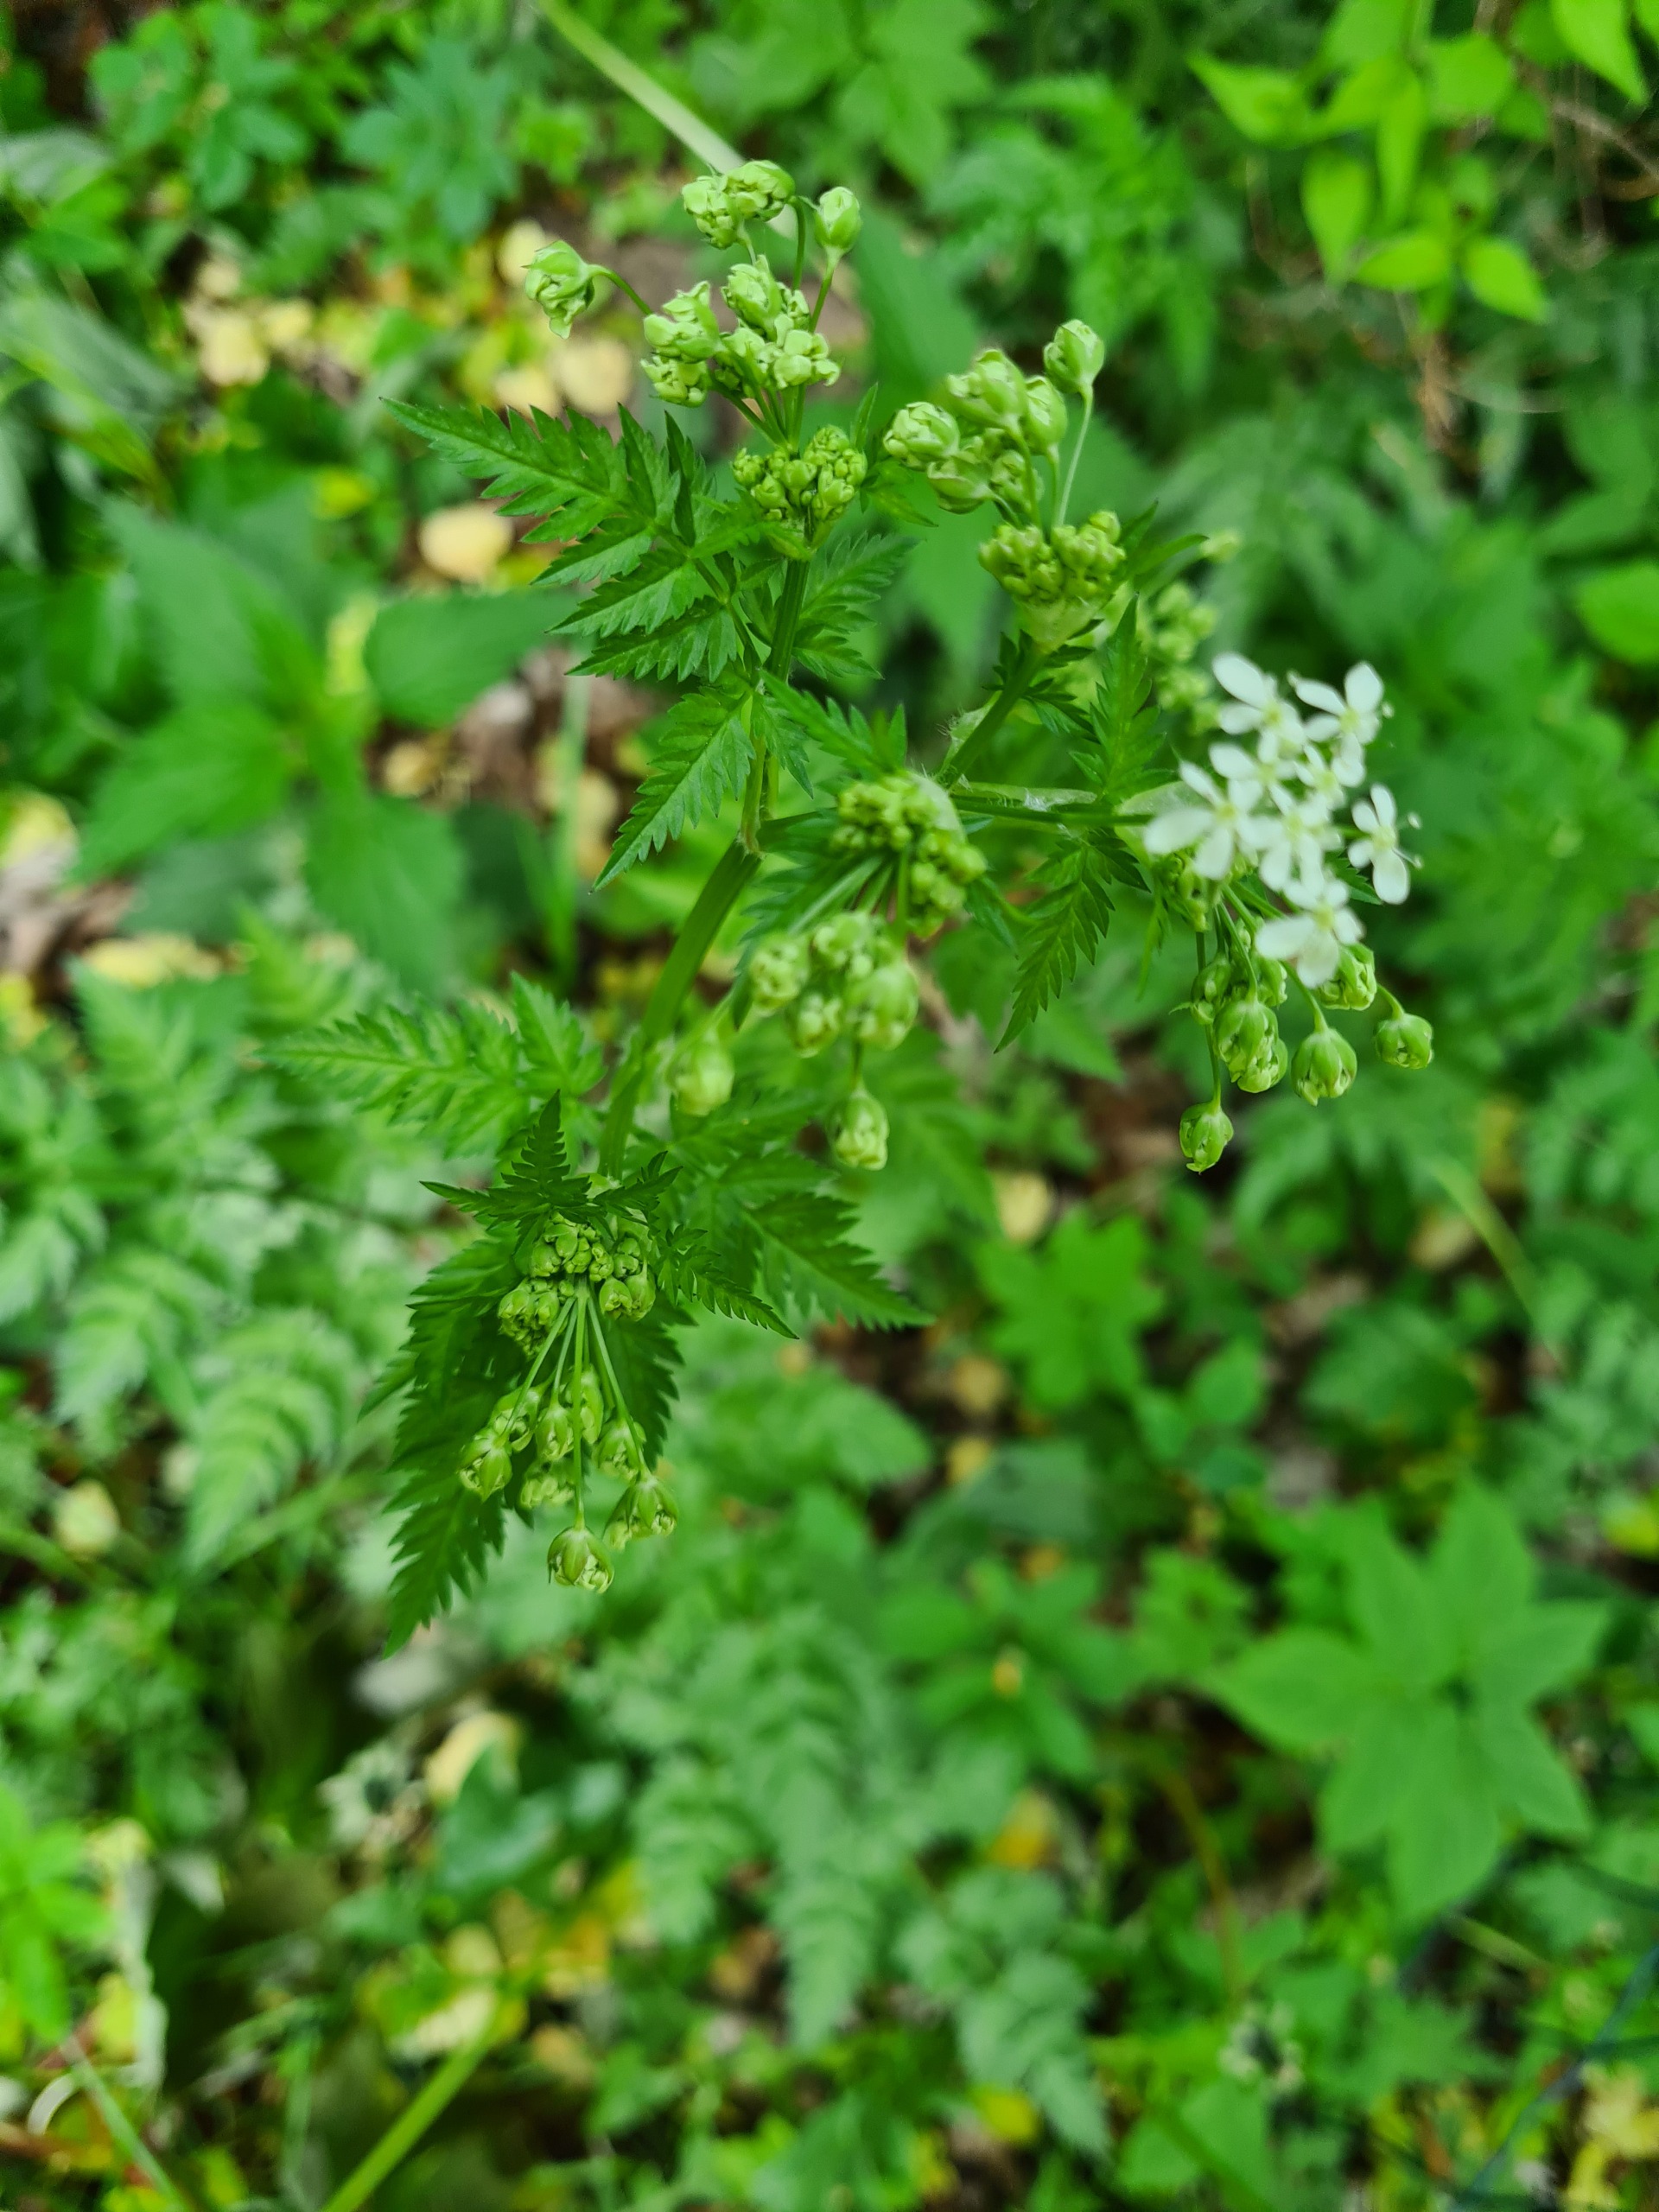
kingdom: Plantae
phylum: Tracheophyta
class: Magnoliopsida
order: Apiales
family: Apiaceae
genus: Anthriscus
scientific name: Anthriscus sylvestris
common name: Vild kørvel
